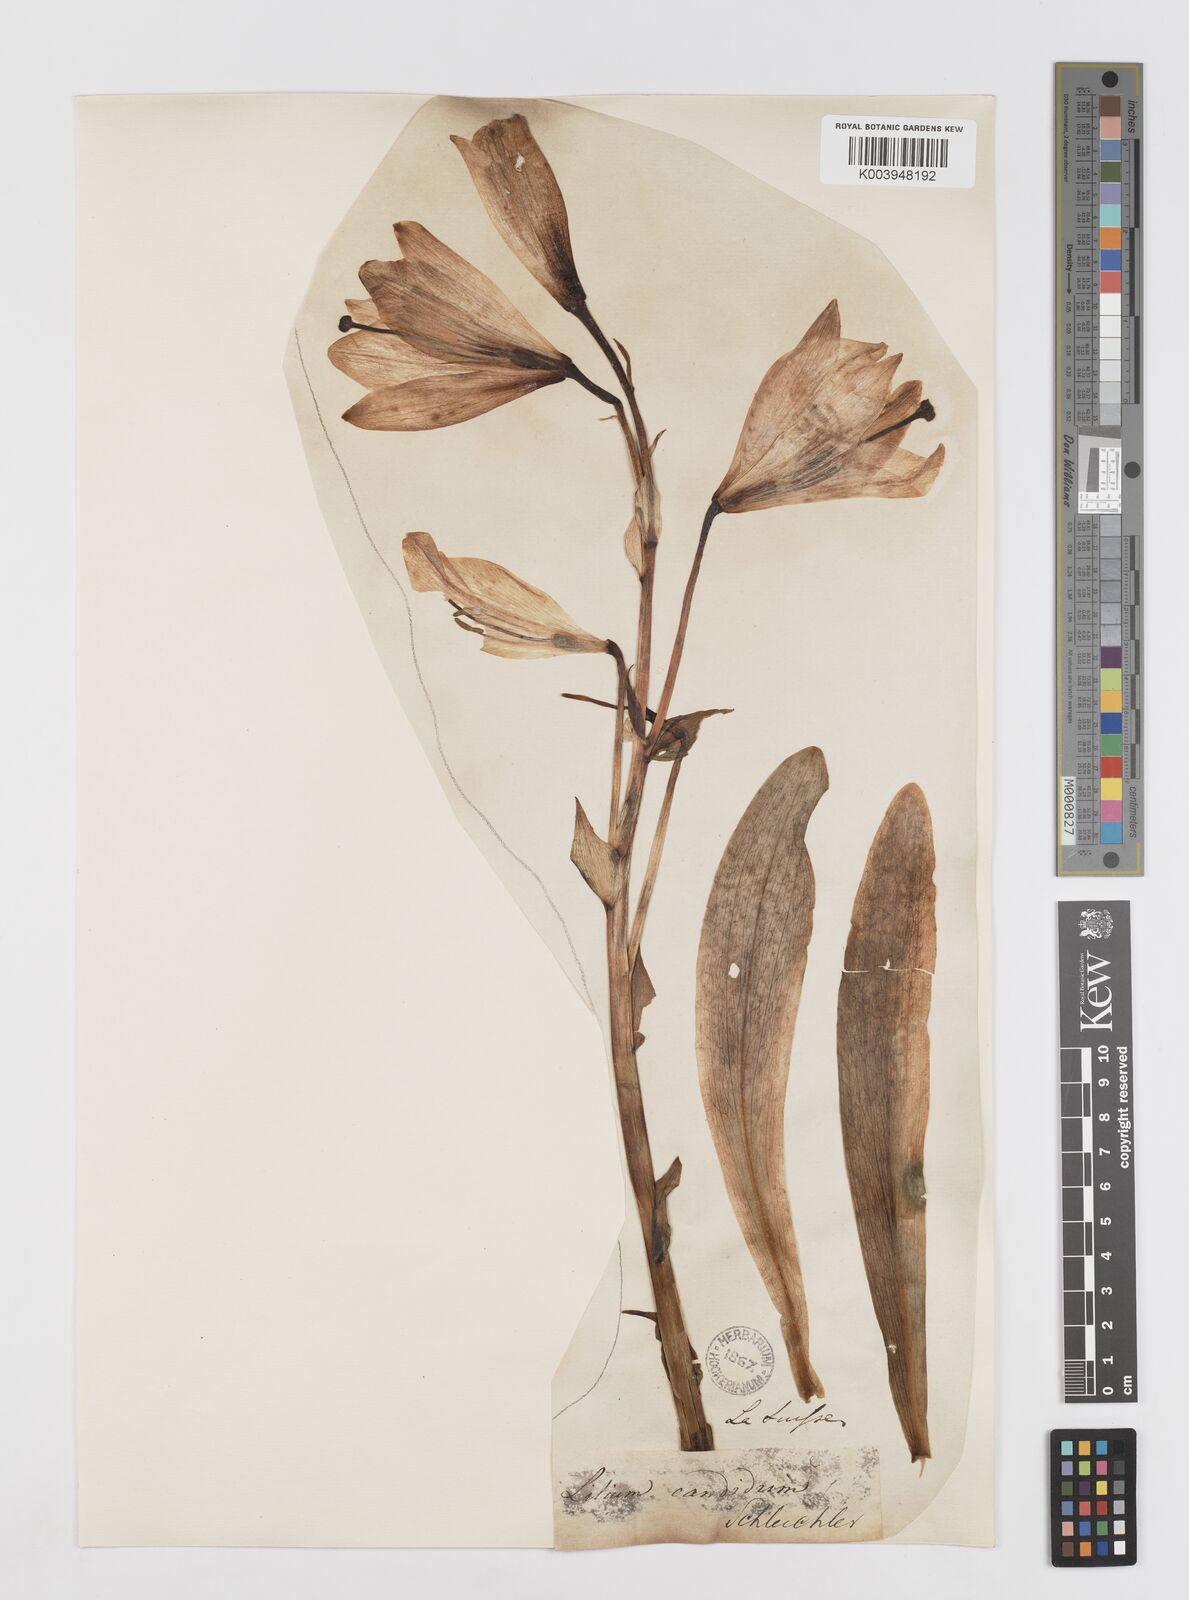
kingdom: Plantae
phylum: Tracheophyta
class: Liliopsida
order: Liliales
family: Liliaceae
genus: Lilium
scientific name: Lilium candidum
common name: Madonna lily
